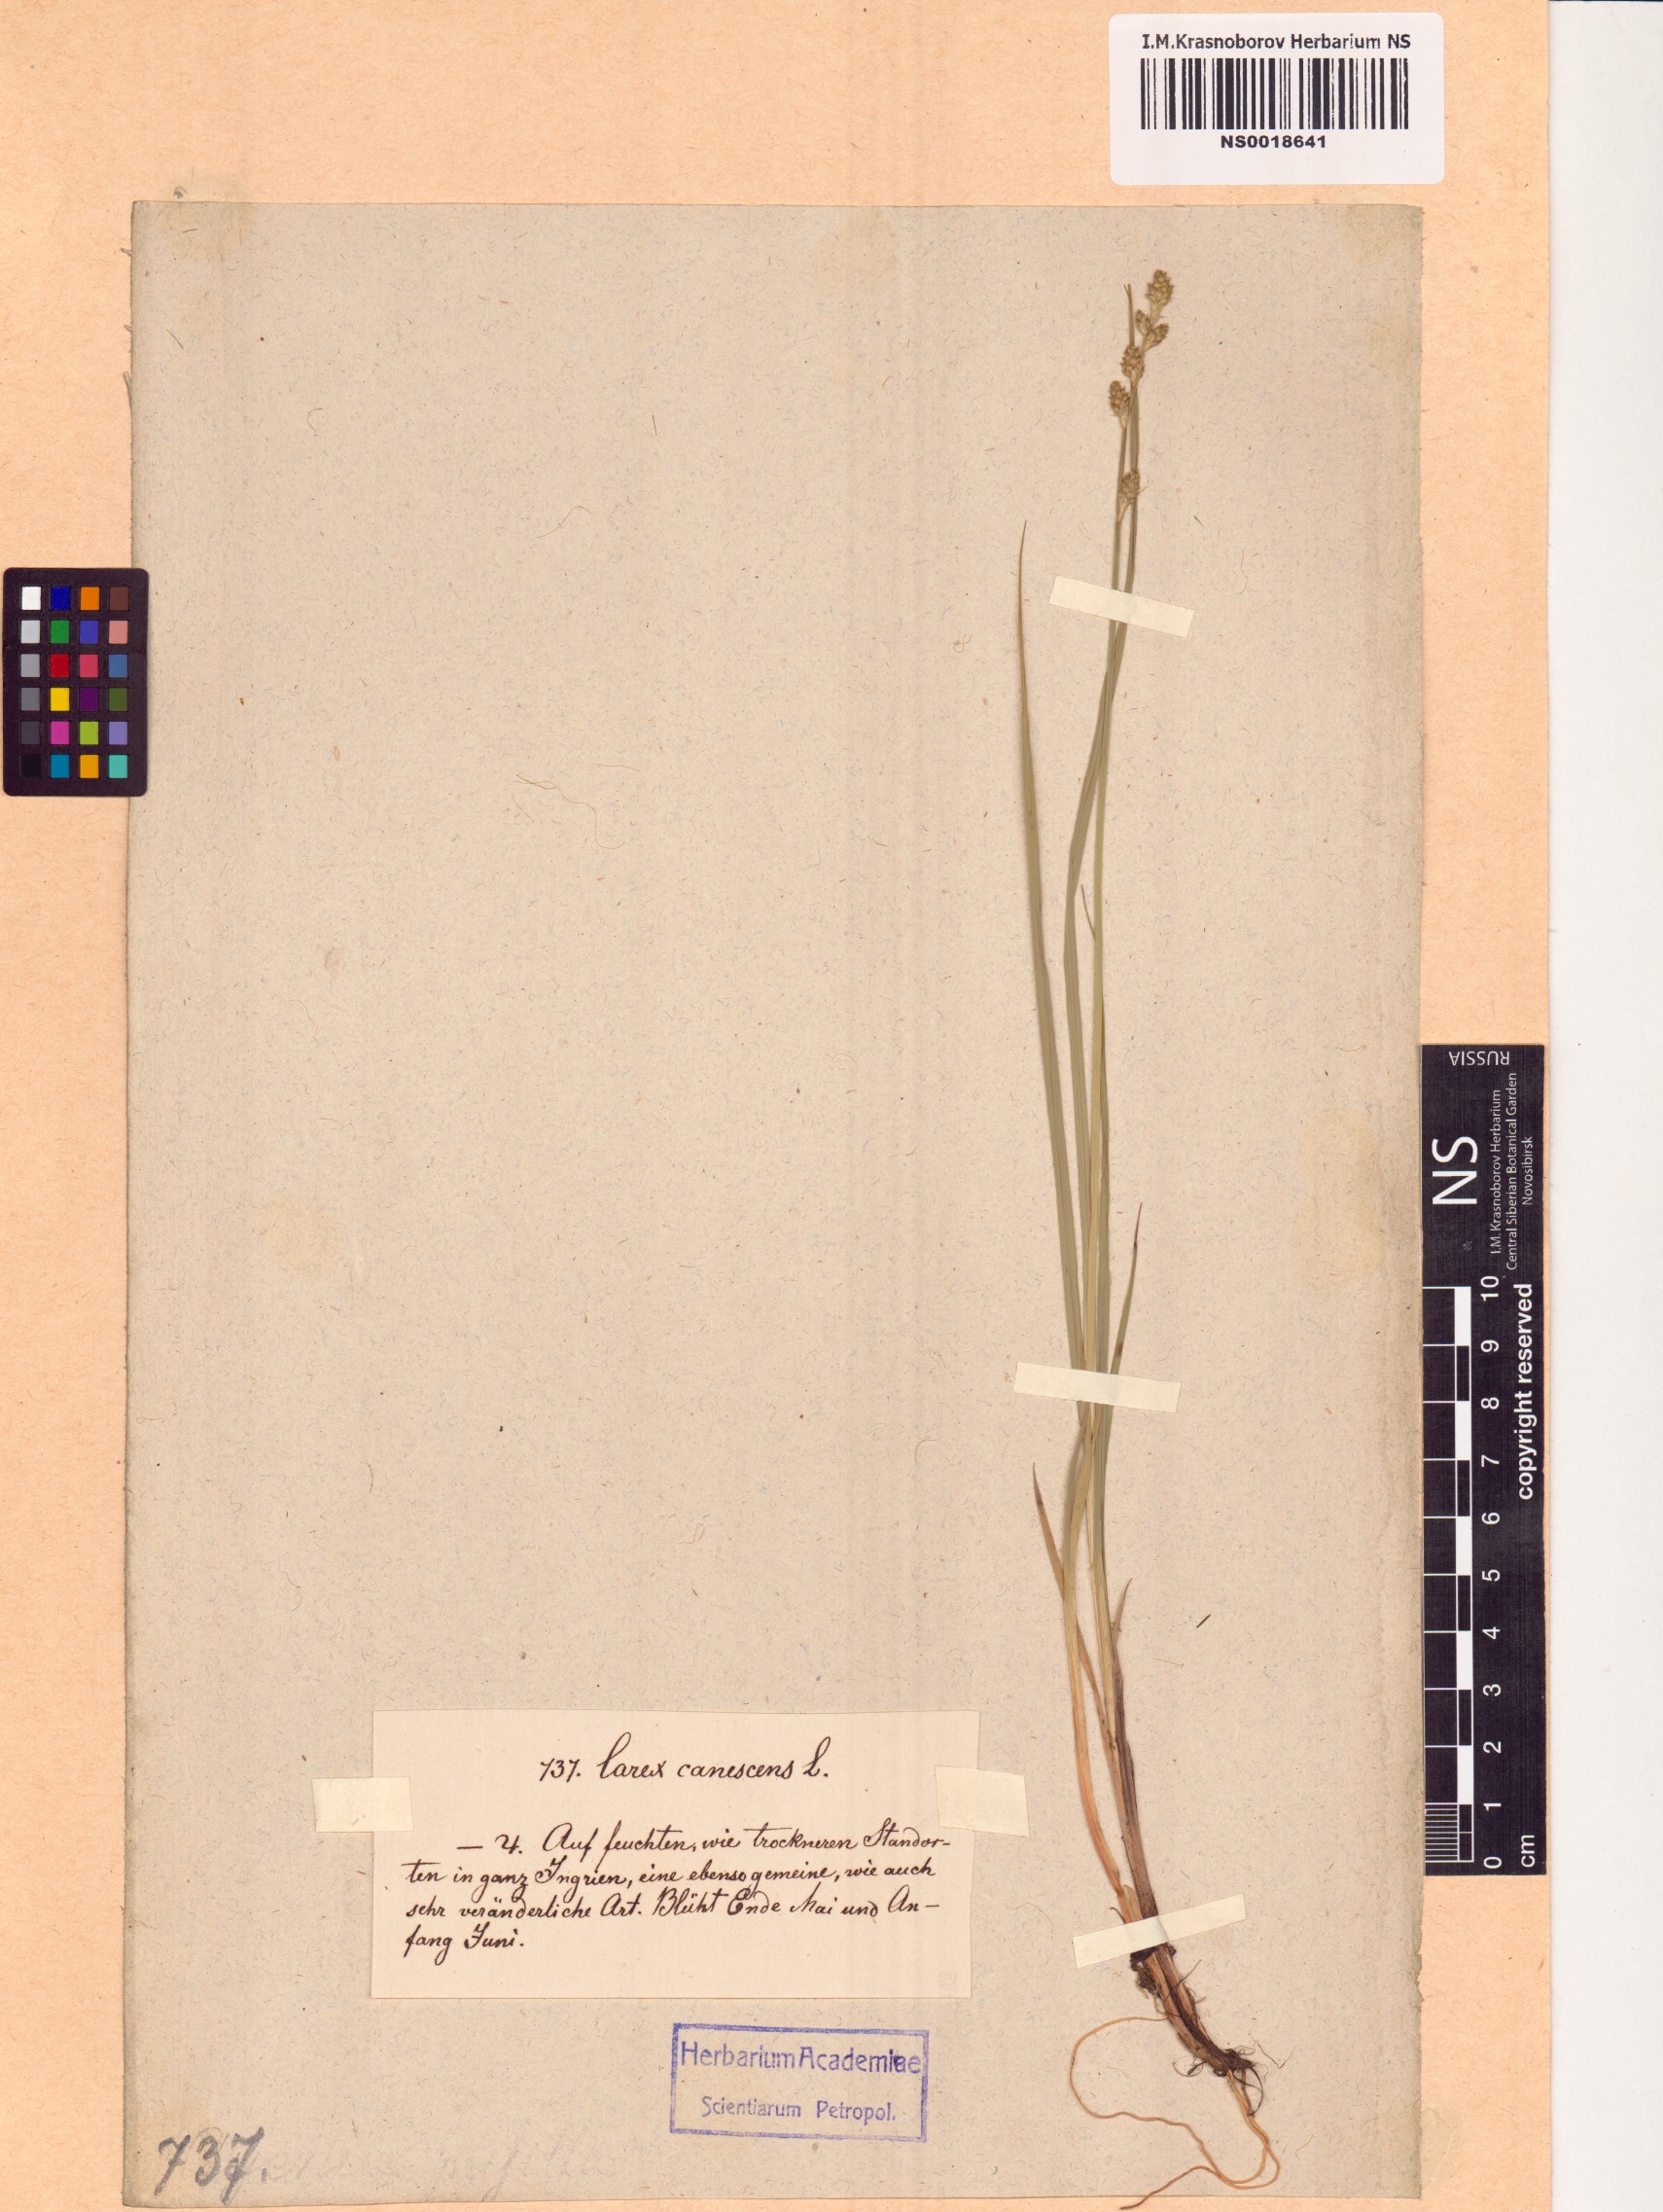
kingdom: Plantae
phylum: Tracheophyta
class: Liliopsida
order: Poales
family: Cyperaceae
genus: Carex
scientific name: Carex canescens
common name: White sedge
